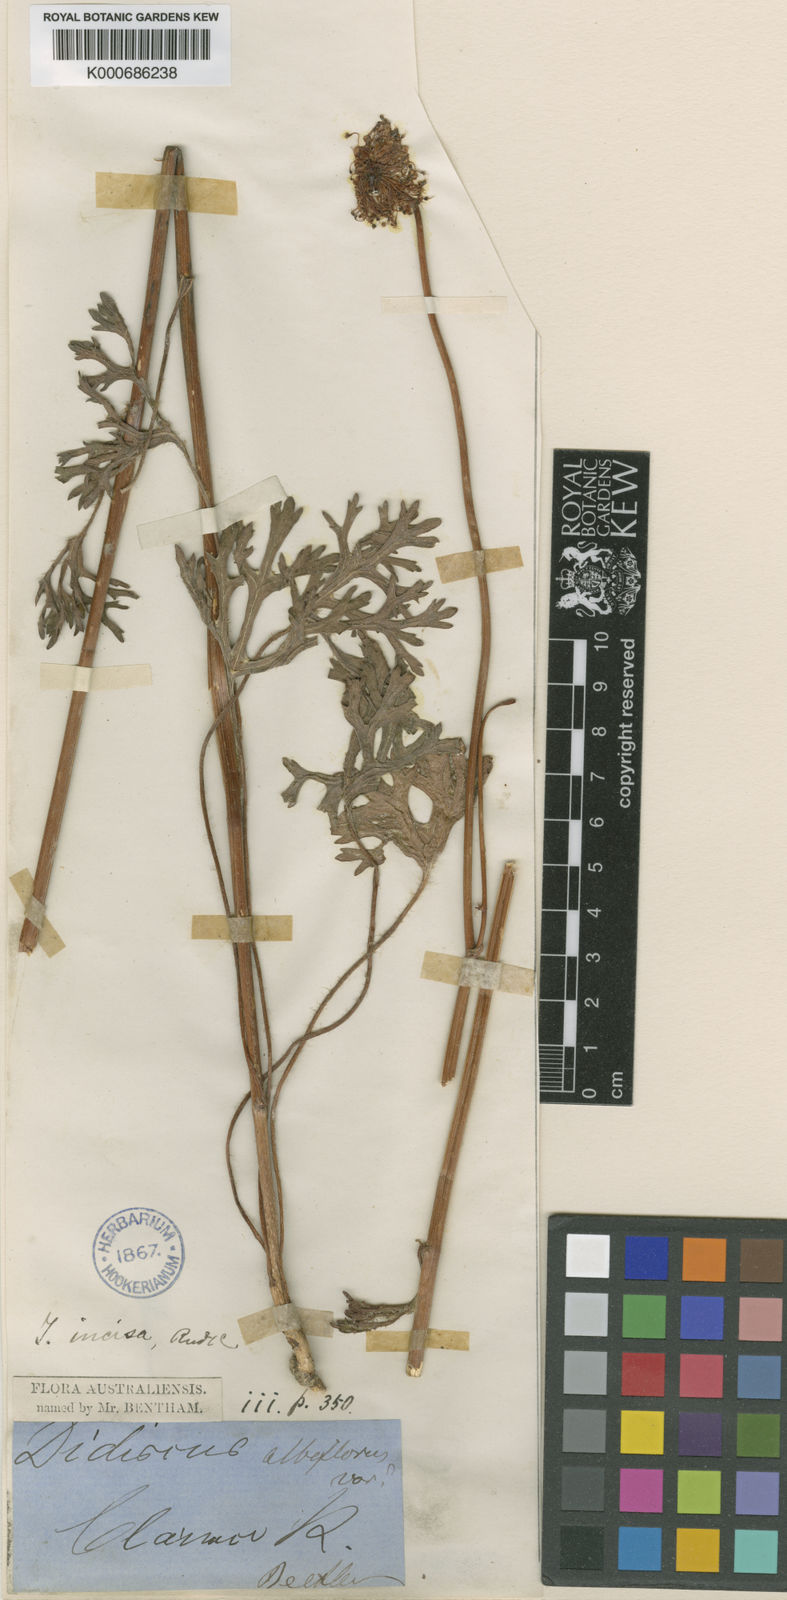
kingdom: Plantae
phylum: Tracheophyta
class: Magnoliopsida
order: Apiales
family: Araliaceae
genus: Trachymene
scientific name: Trachymene incisa
